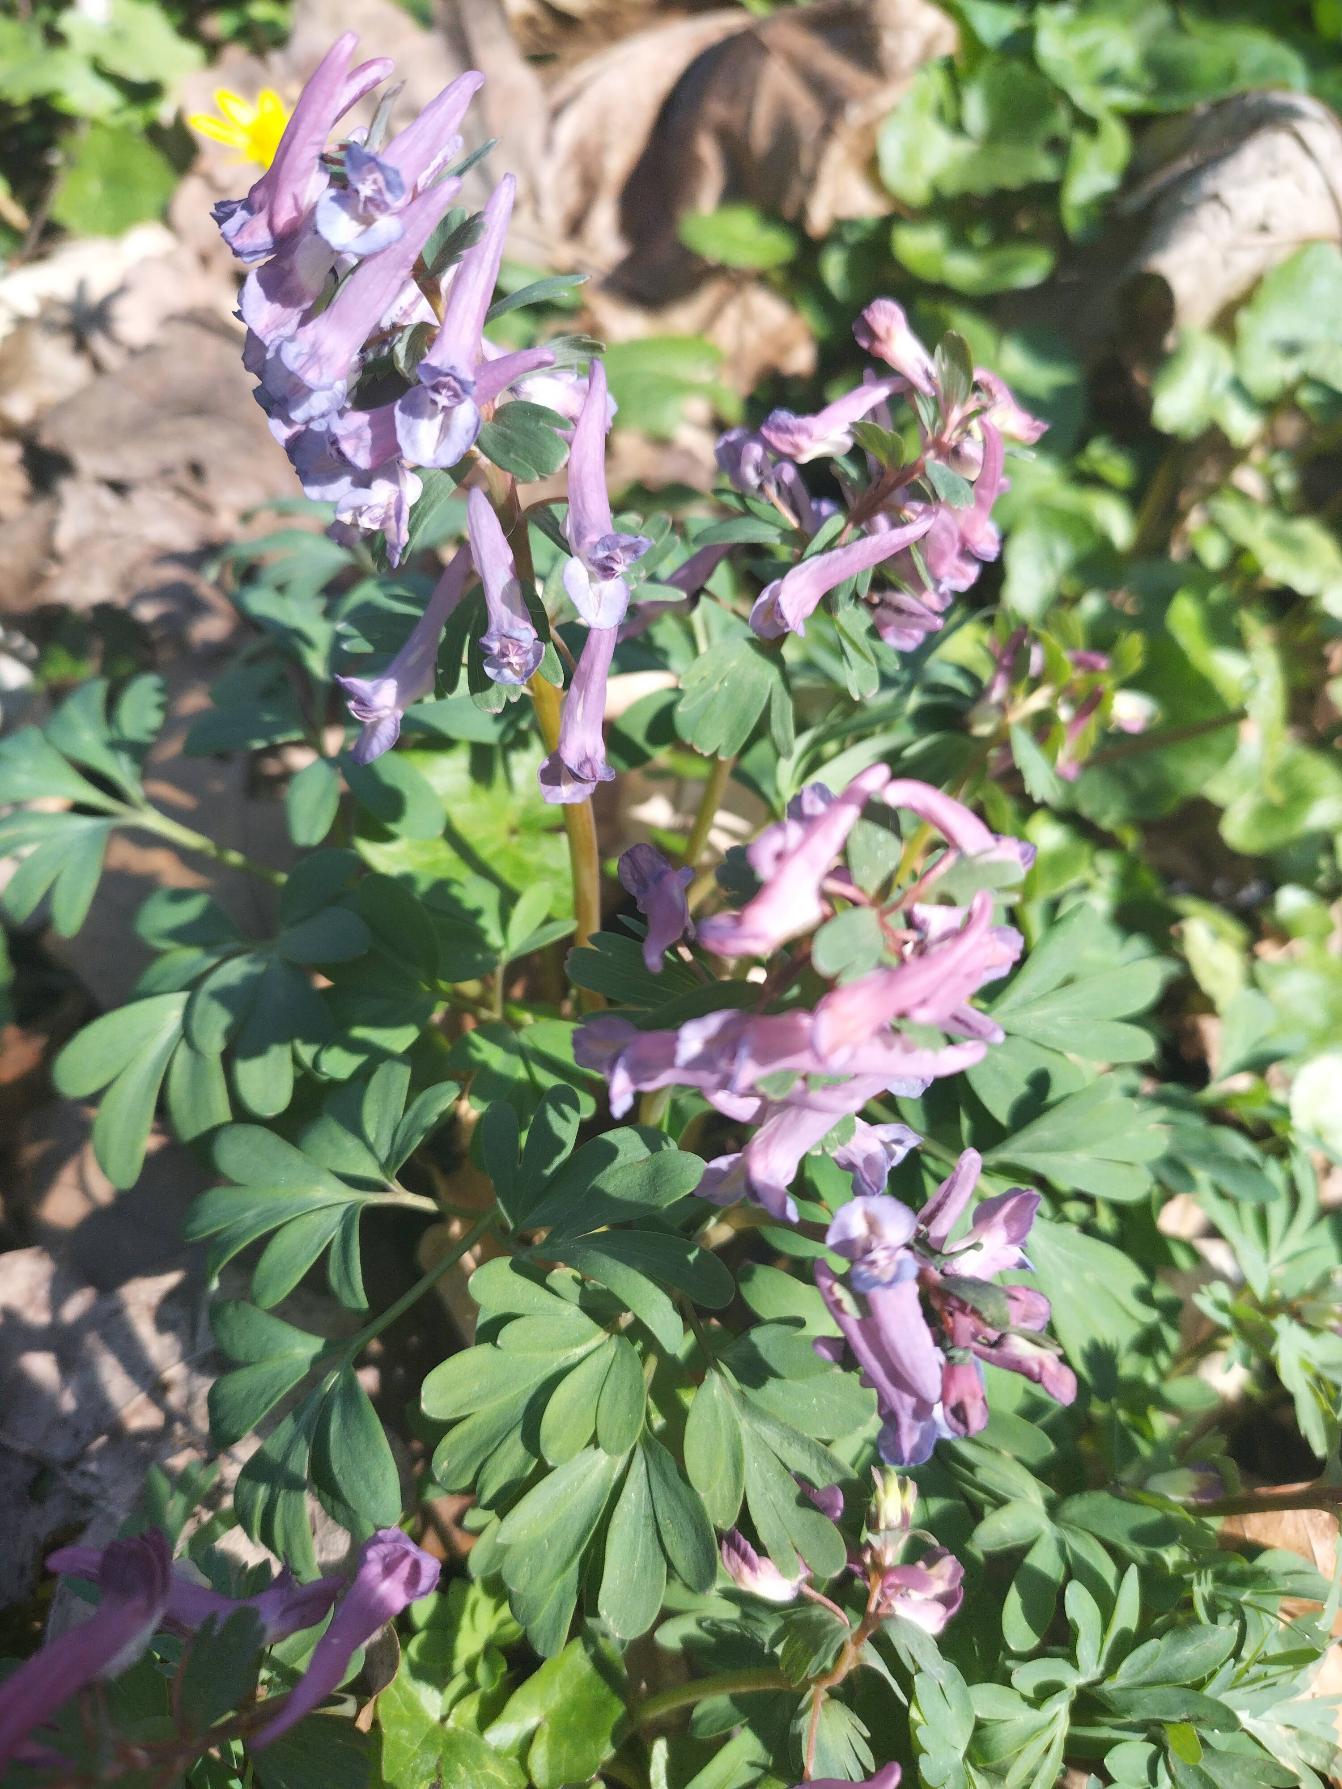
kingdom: Plantae
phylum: Tracheophyta
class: Magnoliopsida
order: Ranunculales
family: Papaveraceae
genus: Corydalis
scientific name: Corydalis solida
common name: Langstilket lærkespore
